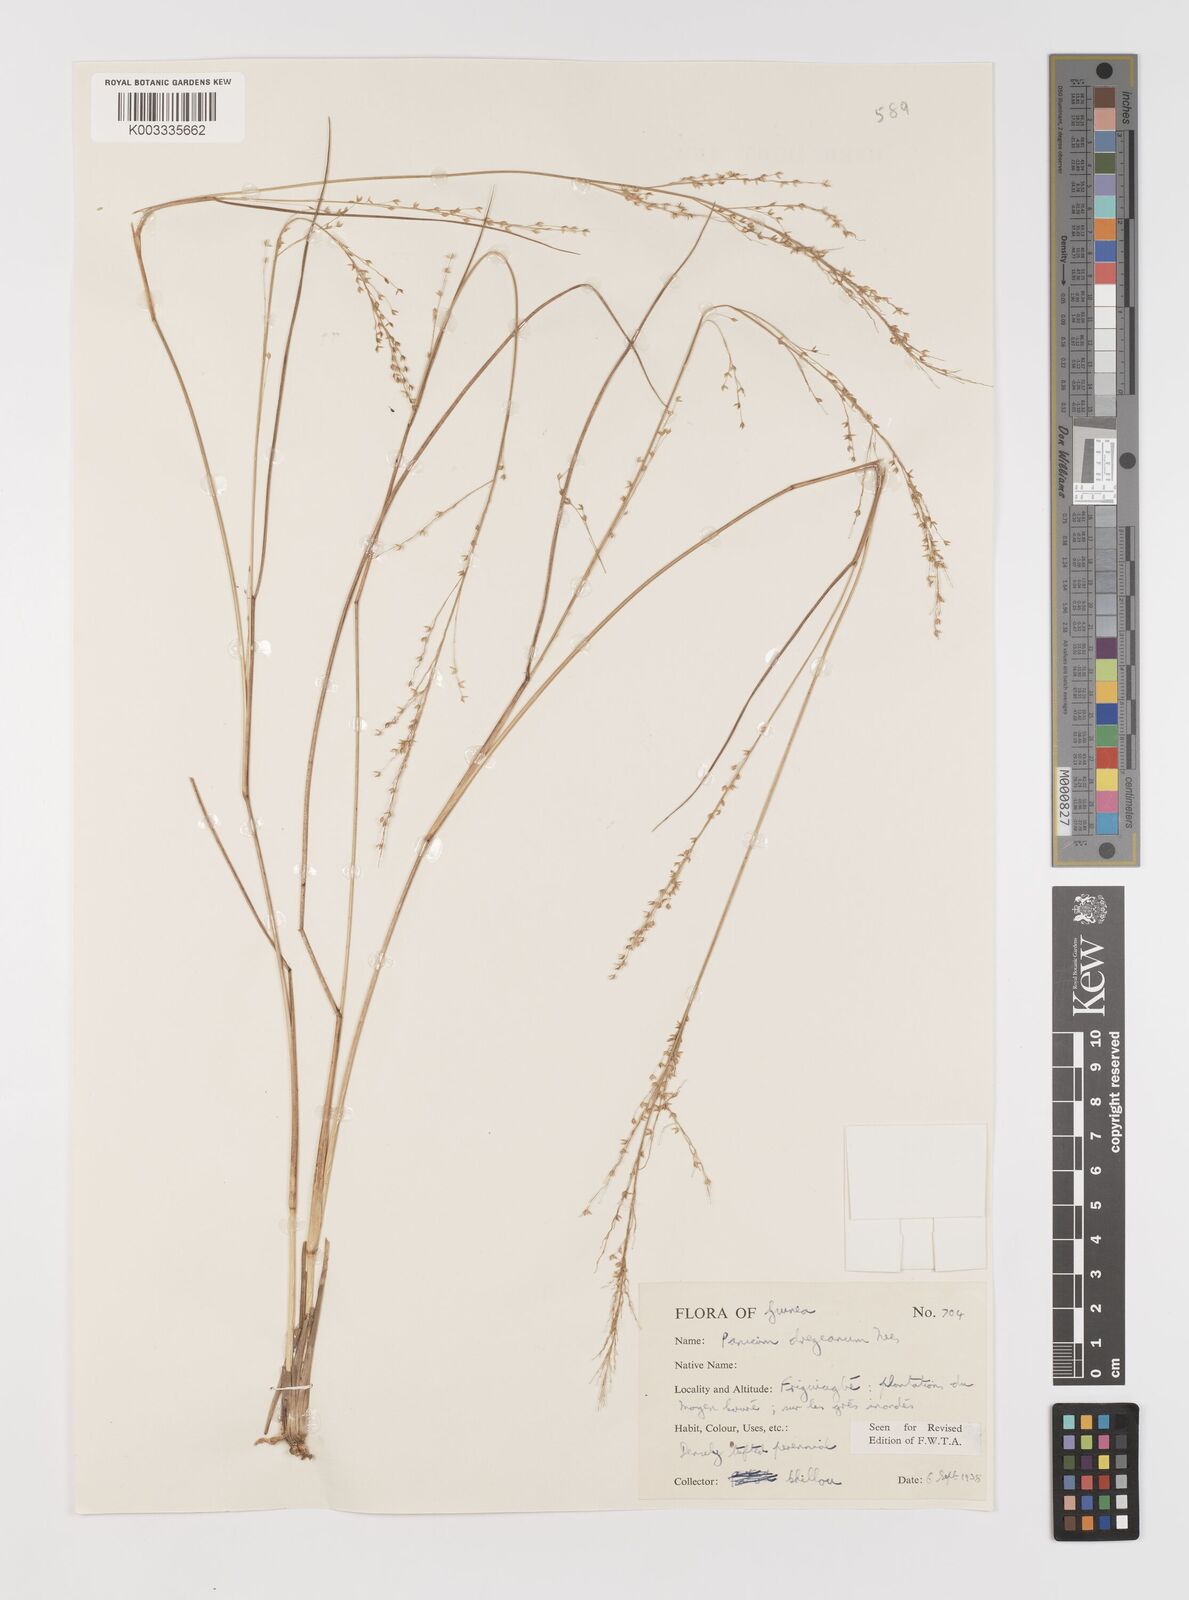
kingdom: Plantae
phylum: Tracheophyta
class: Liliopsida
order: Poales
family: Poaceae
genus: Panicum
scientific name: Panicum dregeanum
